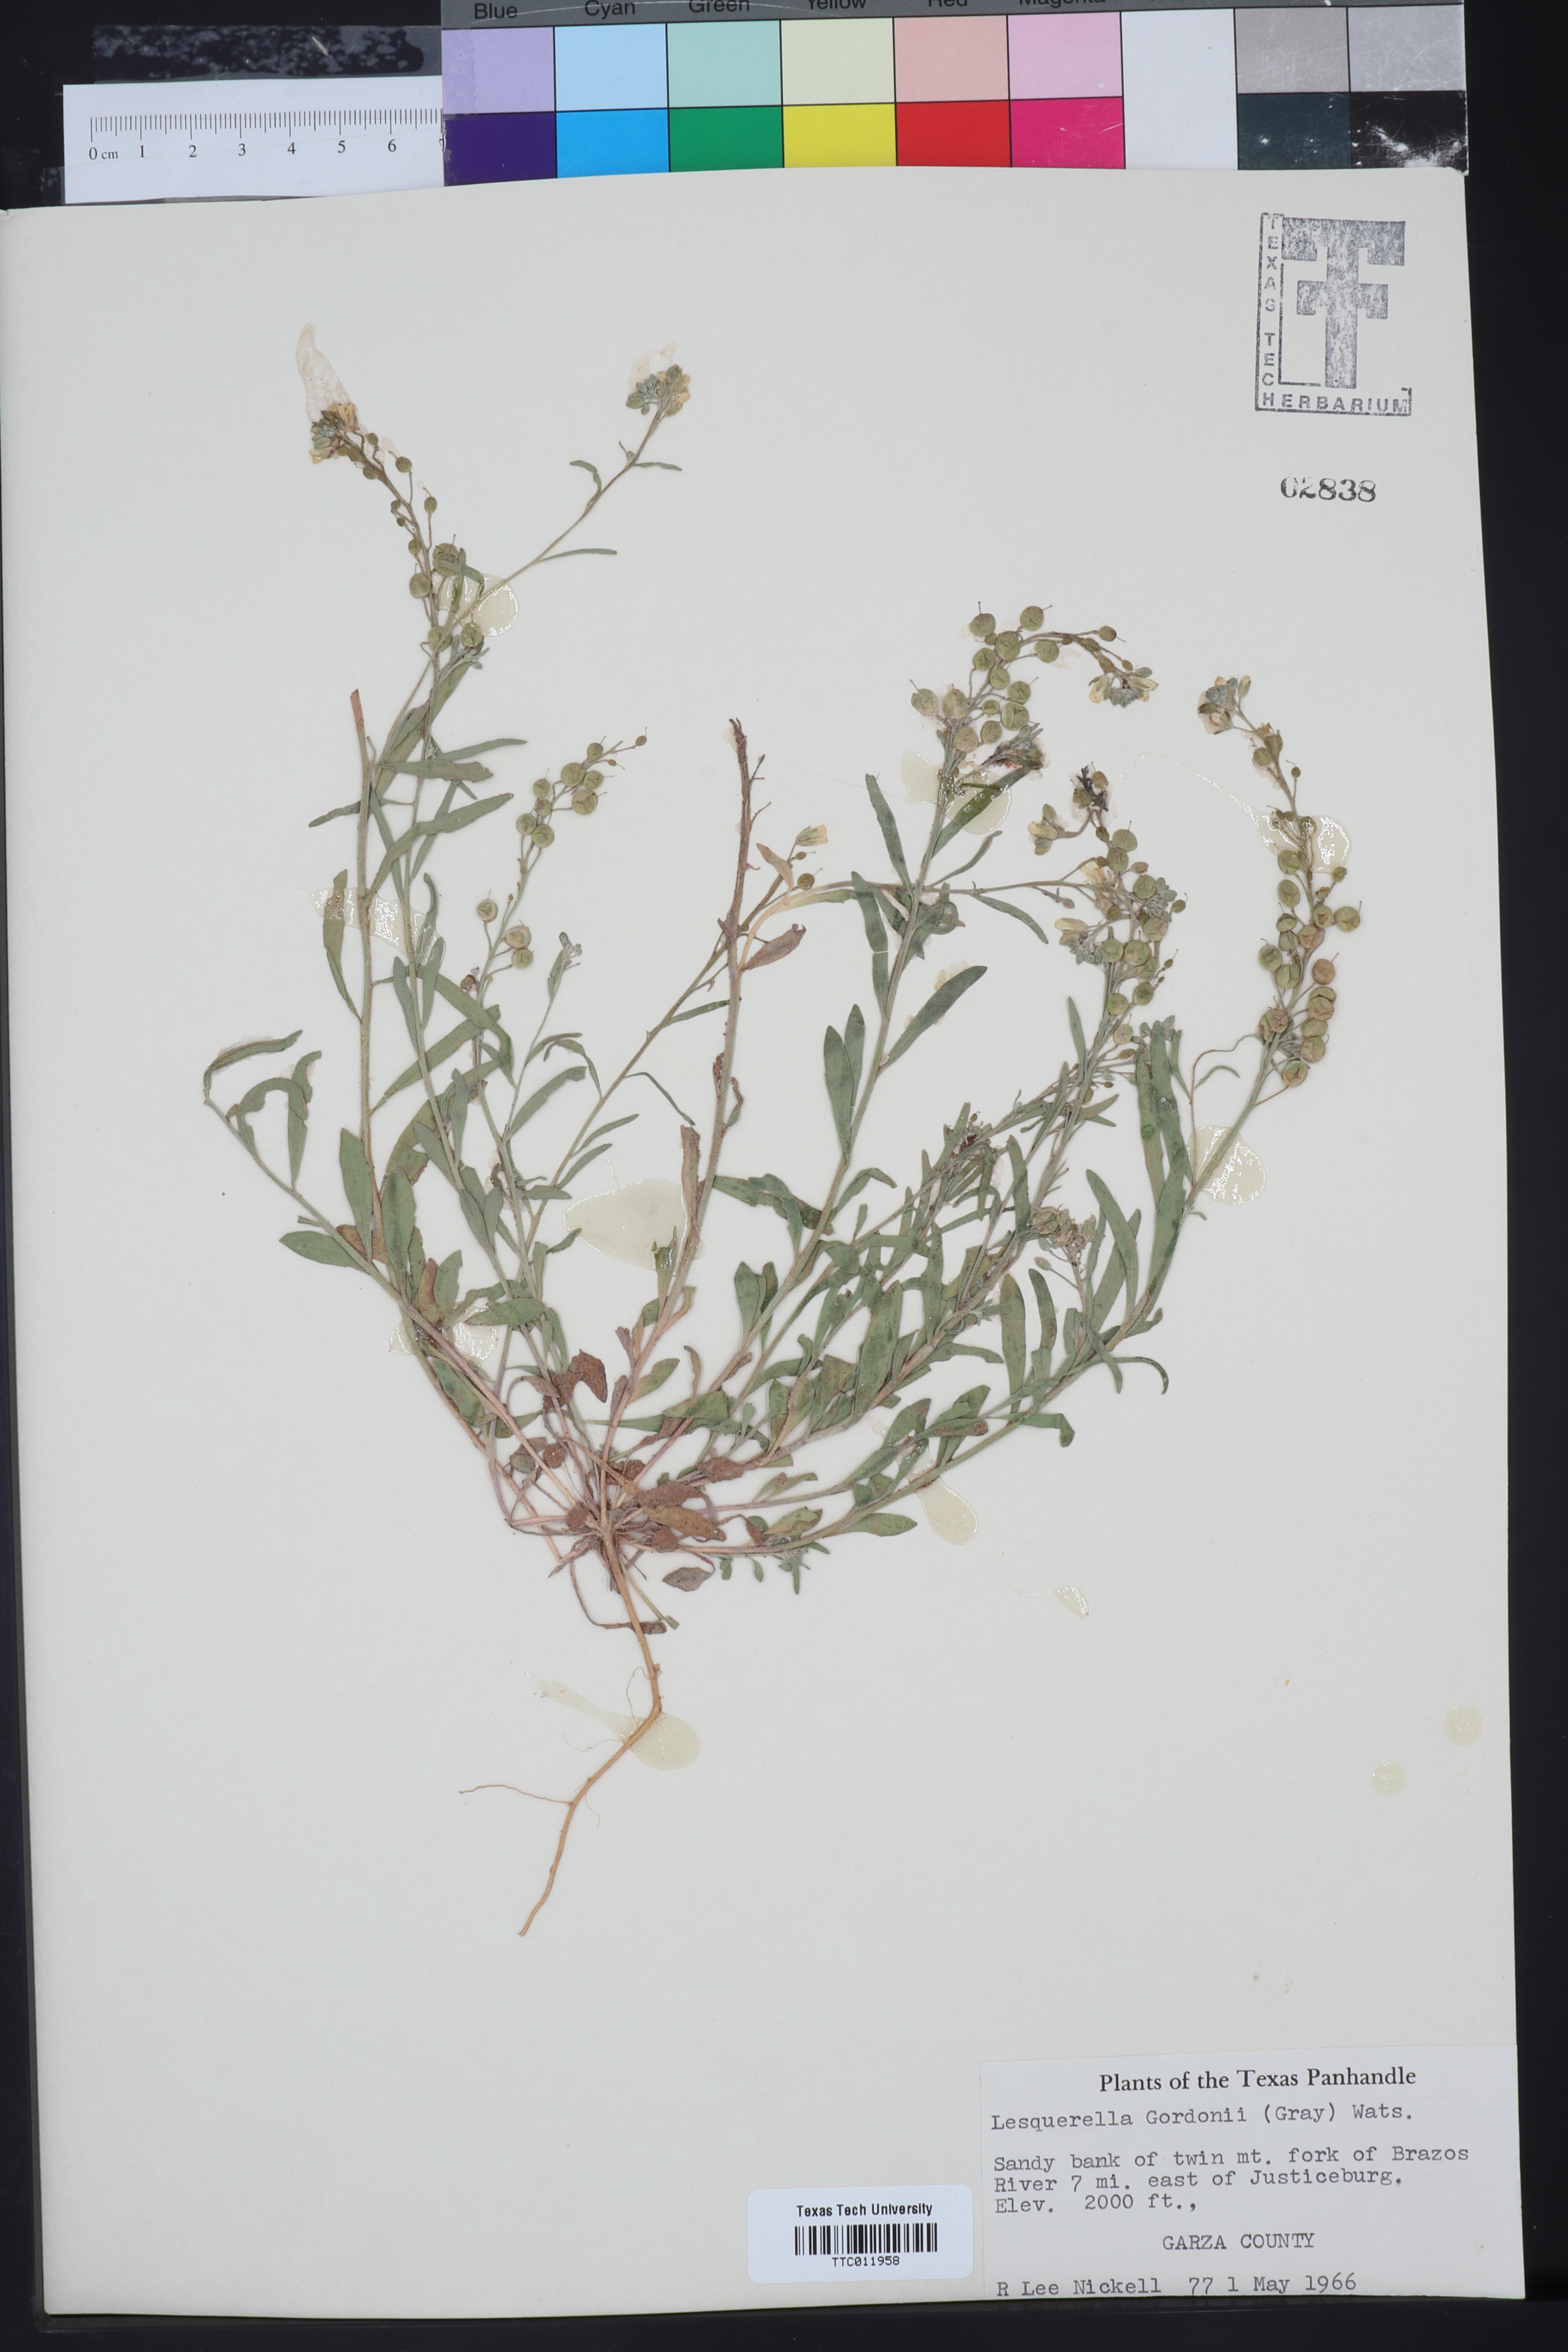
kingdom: Plantae
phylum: Tracheophyta
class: Magnoliopsida
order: Brassicales
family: Brassicaceae
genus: Physaria
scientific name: Physaria gordonii
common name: Gordon's bladderpod
